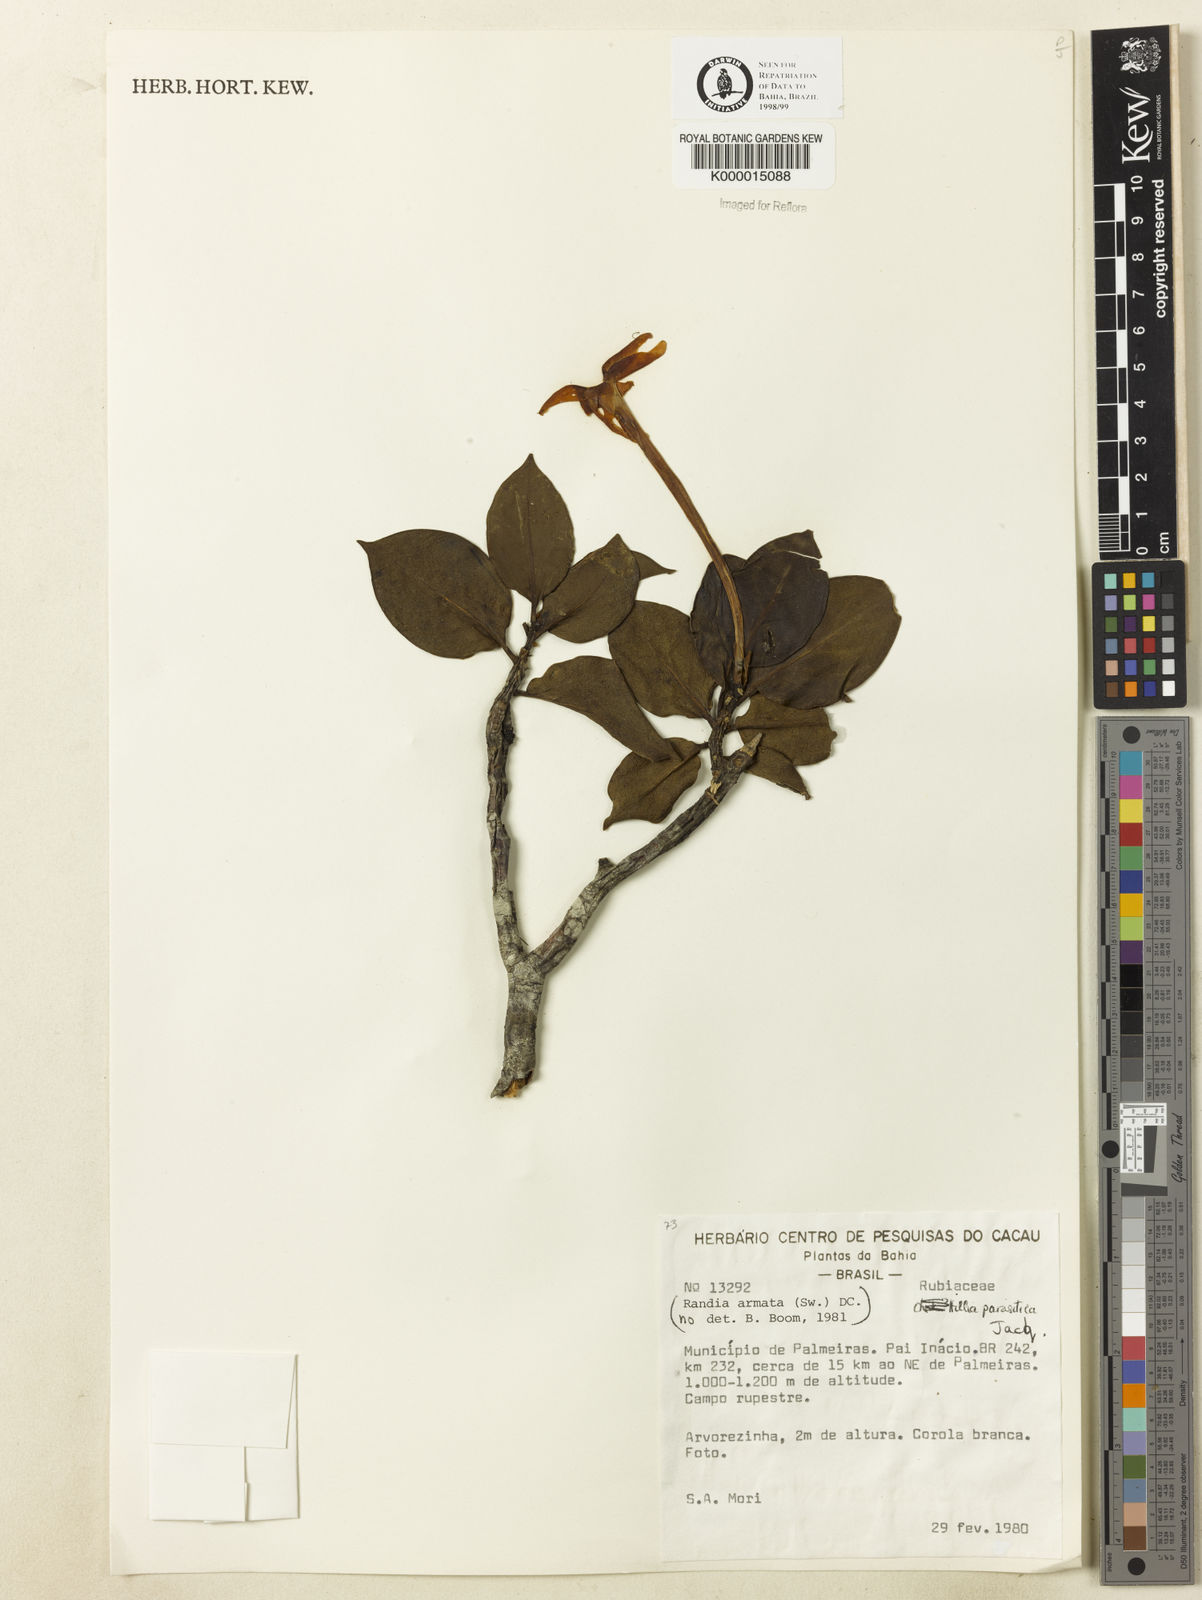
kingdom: Plantae
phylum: Tracheophyta
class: Magnoliopsida
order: Gentianales
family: Rubiaceae
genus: Hillia
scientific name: Hillia parasitica
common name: Morning star
